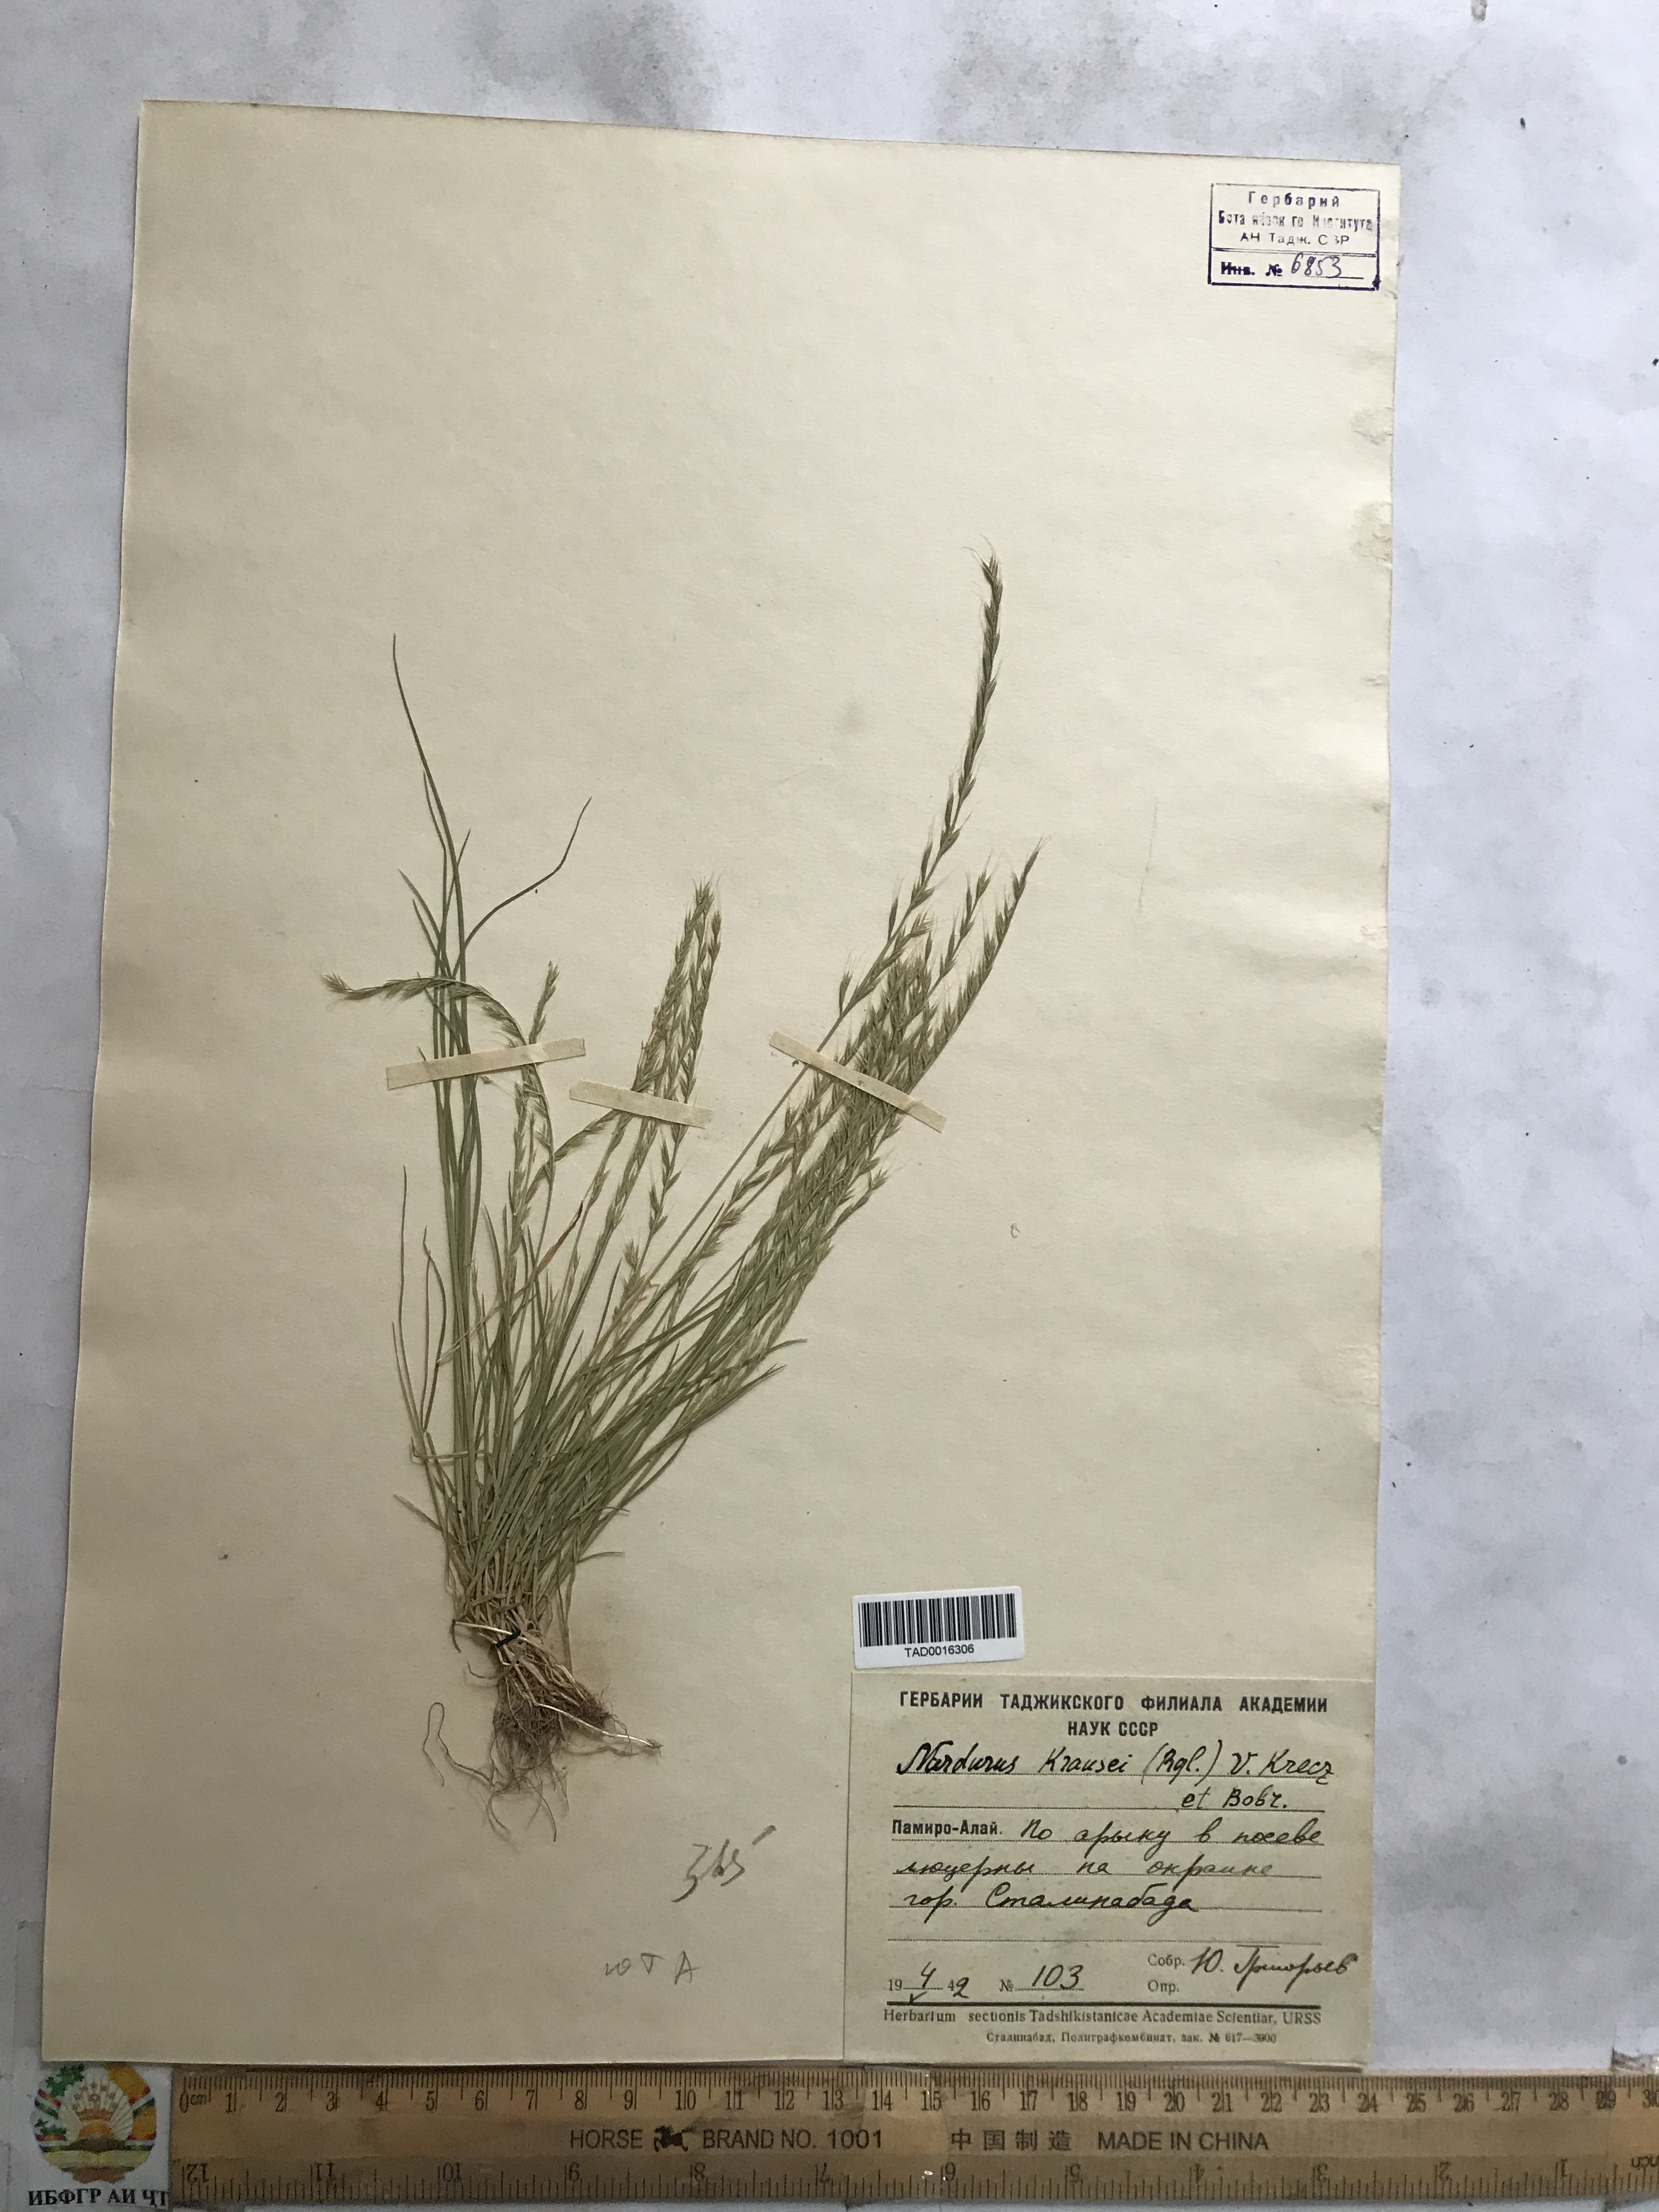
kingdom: Plantae
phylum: Tracheophyta
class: Liliopsida
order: Poales
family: Poaceae
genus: Festuca
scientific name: Festuca maritima
